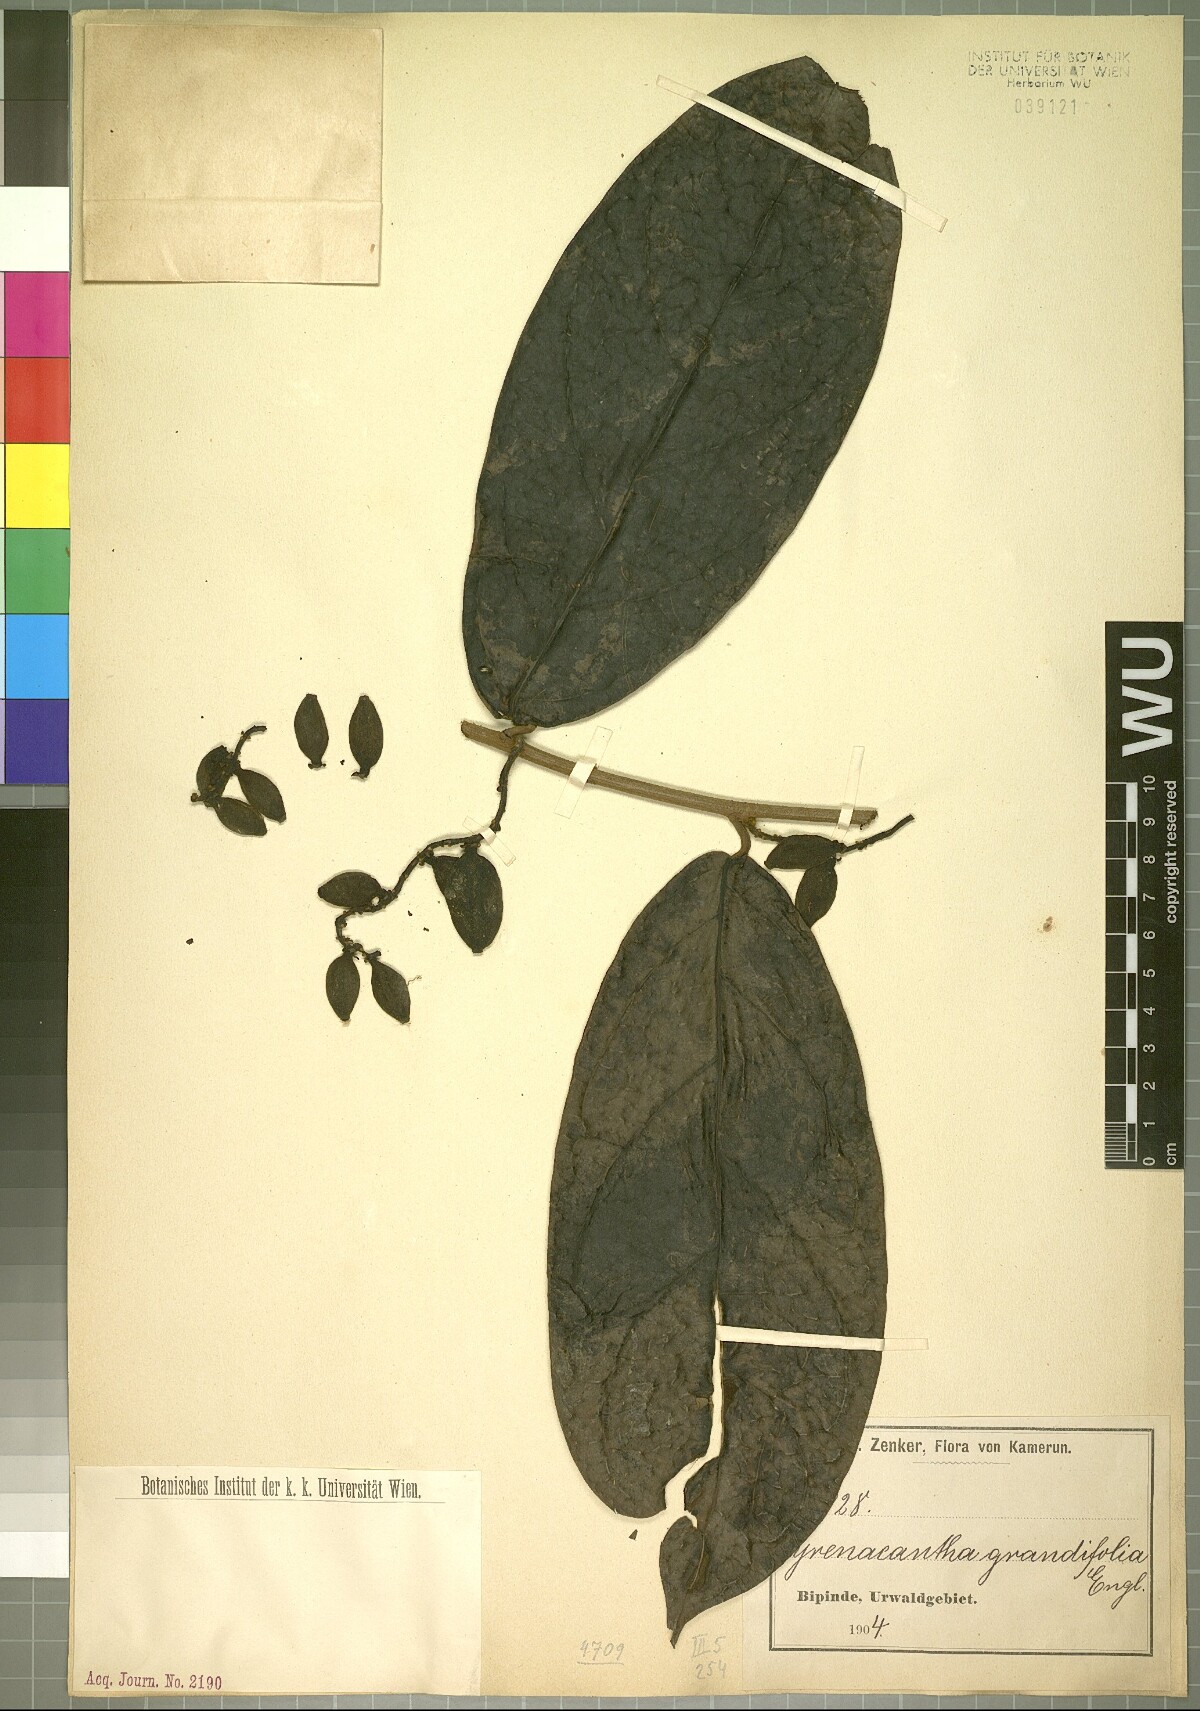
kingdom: Plantae
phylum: Tracheophyta
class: Magnoliopsida
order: Icacinales
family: Icacinaceae
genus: Pyrenacantha
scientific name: Pyrenacantha grandifolia
